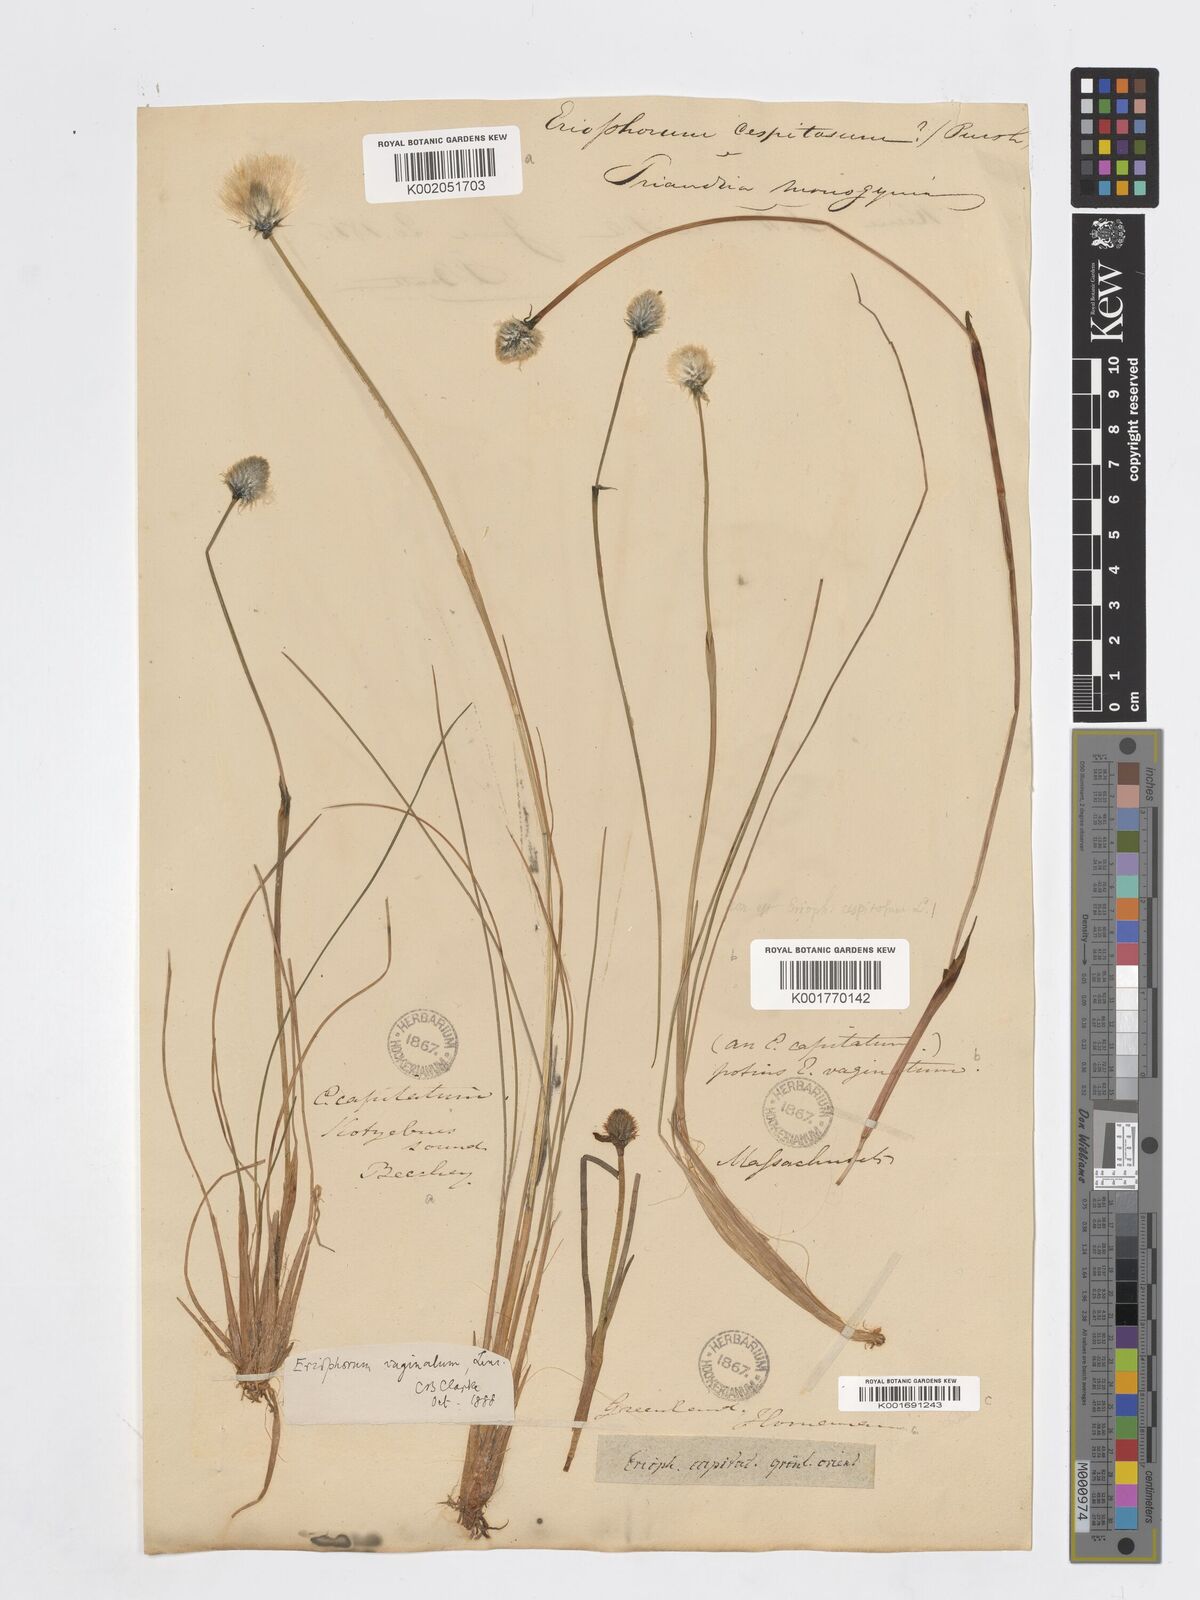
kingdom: Plantae
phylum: Tracheophyta
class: Liliopsida
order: Poales
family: Cyperaceae
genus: Eriophorum
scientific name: Eriophorum vaginatum
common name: Hare's-tail cottongrass
